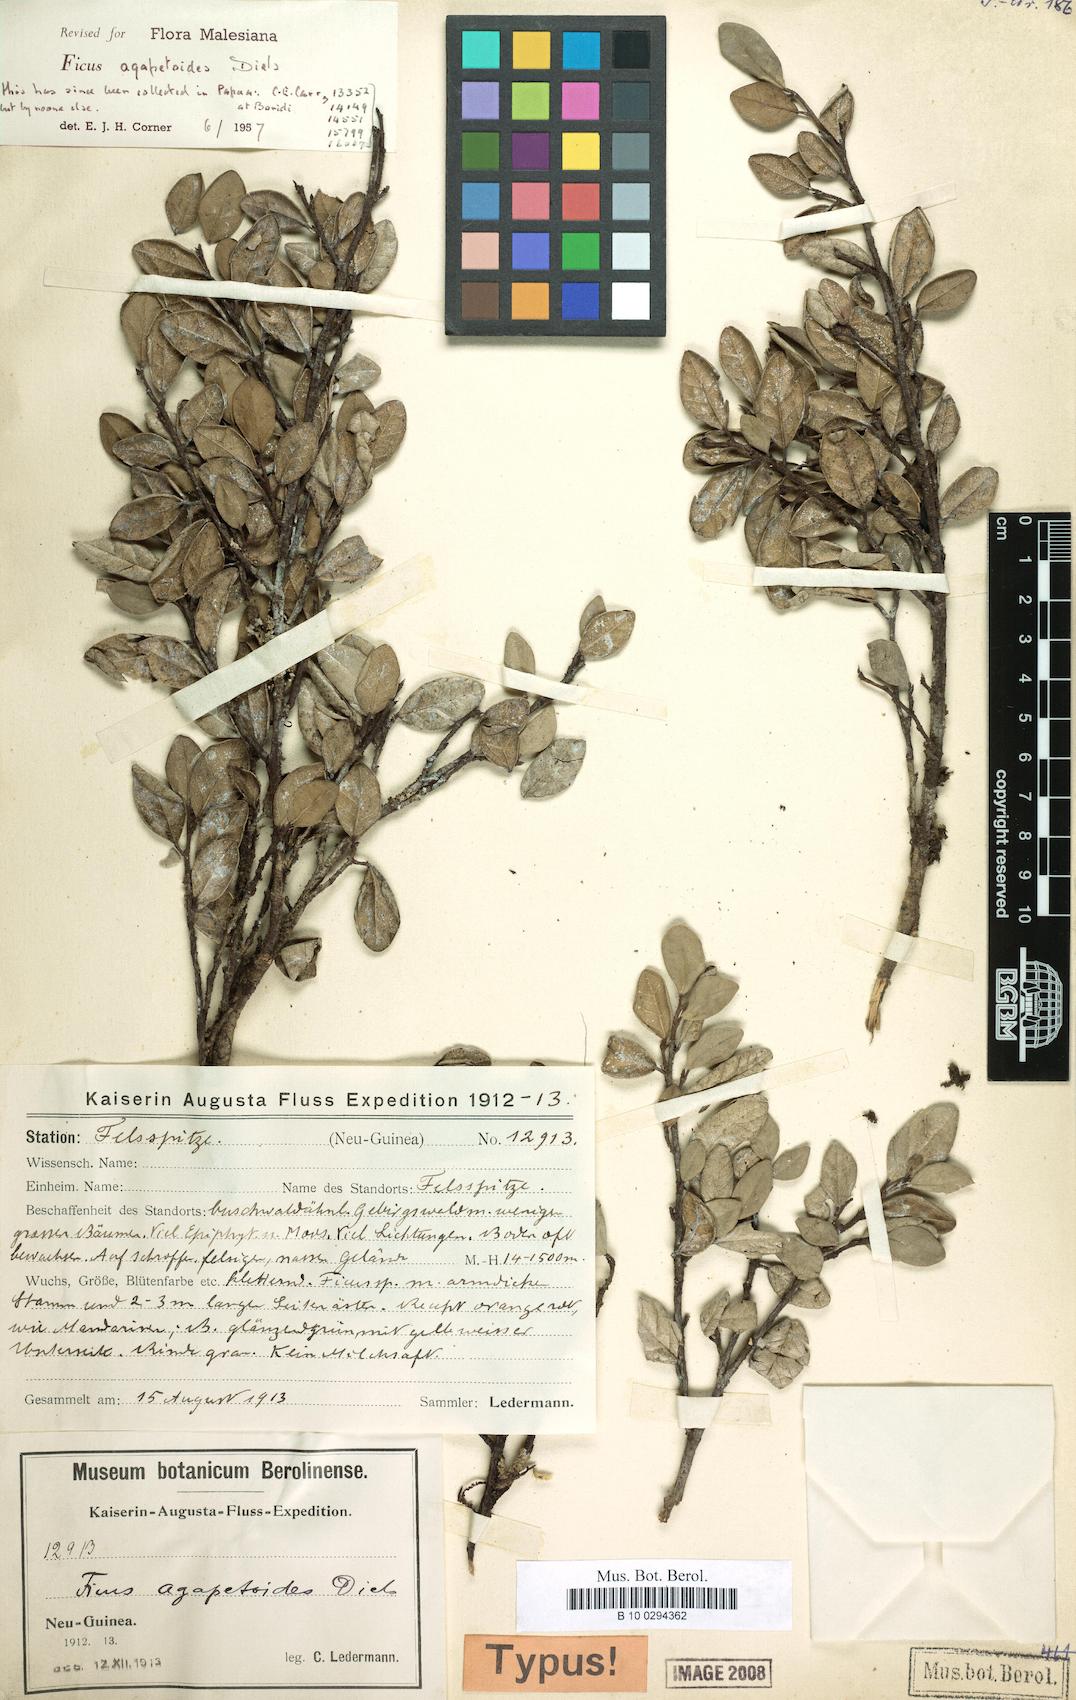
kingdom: Plantae
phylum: Tracheophyta
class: Magnoliopsida
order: Rosales
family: Moraceae
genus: Ficus
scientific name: Ficus disticha
